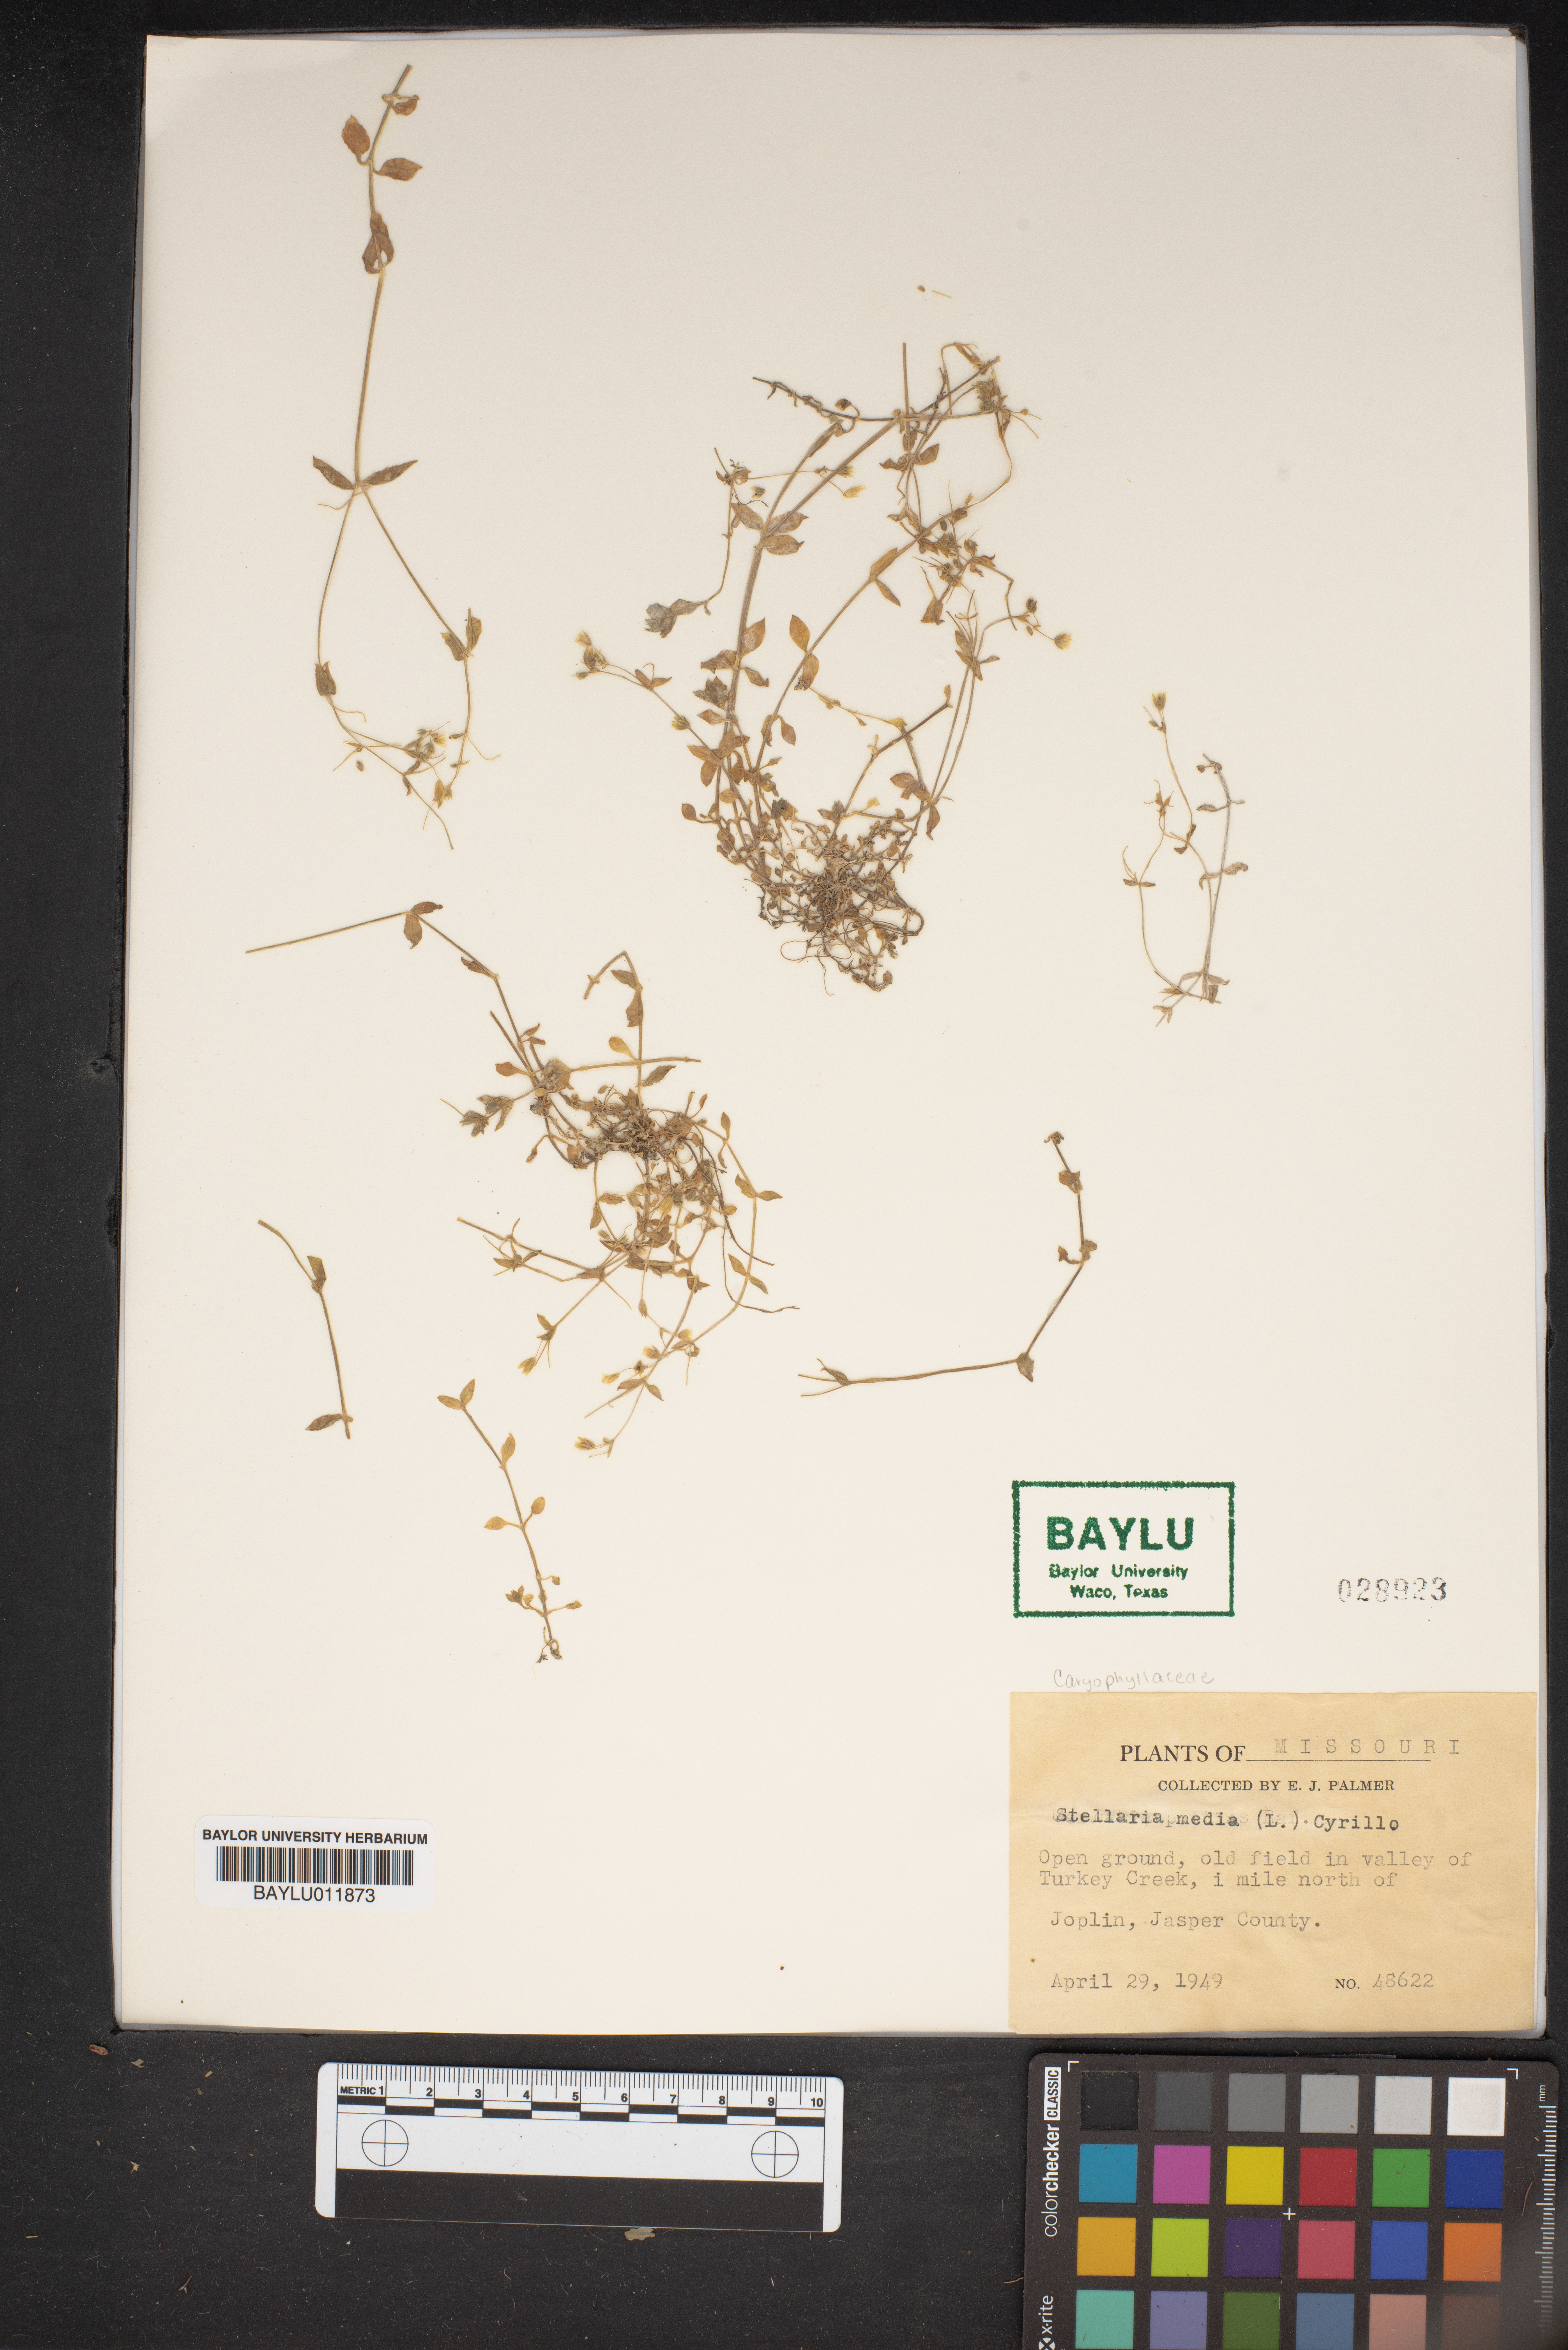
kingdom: Plantae
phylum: Tracheophyta
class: Magnoliopsida
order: Caryophyllales
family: Caryophyllaceae
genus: Stellaria
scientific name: Stellaria media
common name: Common chickweed
